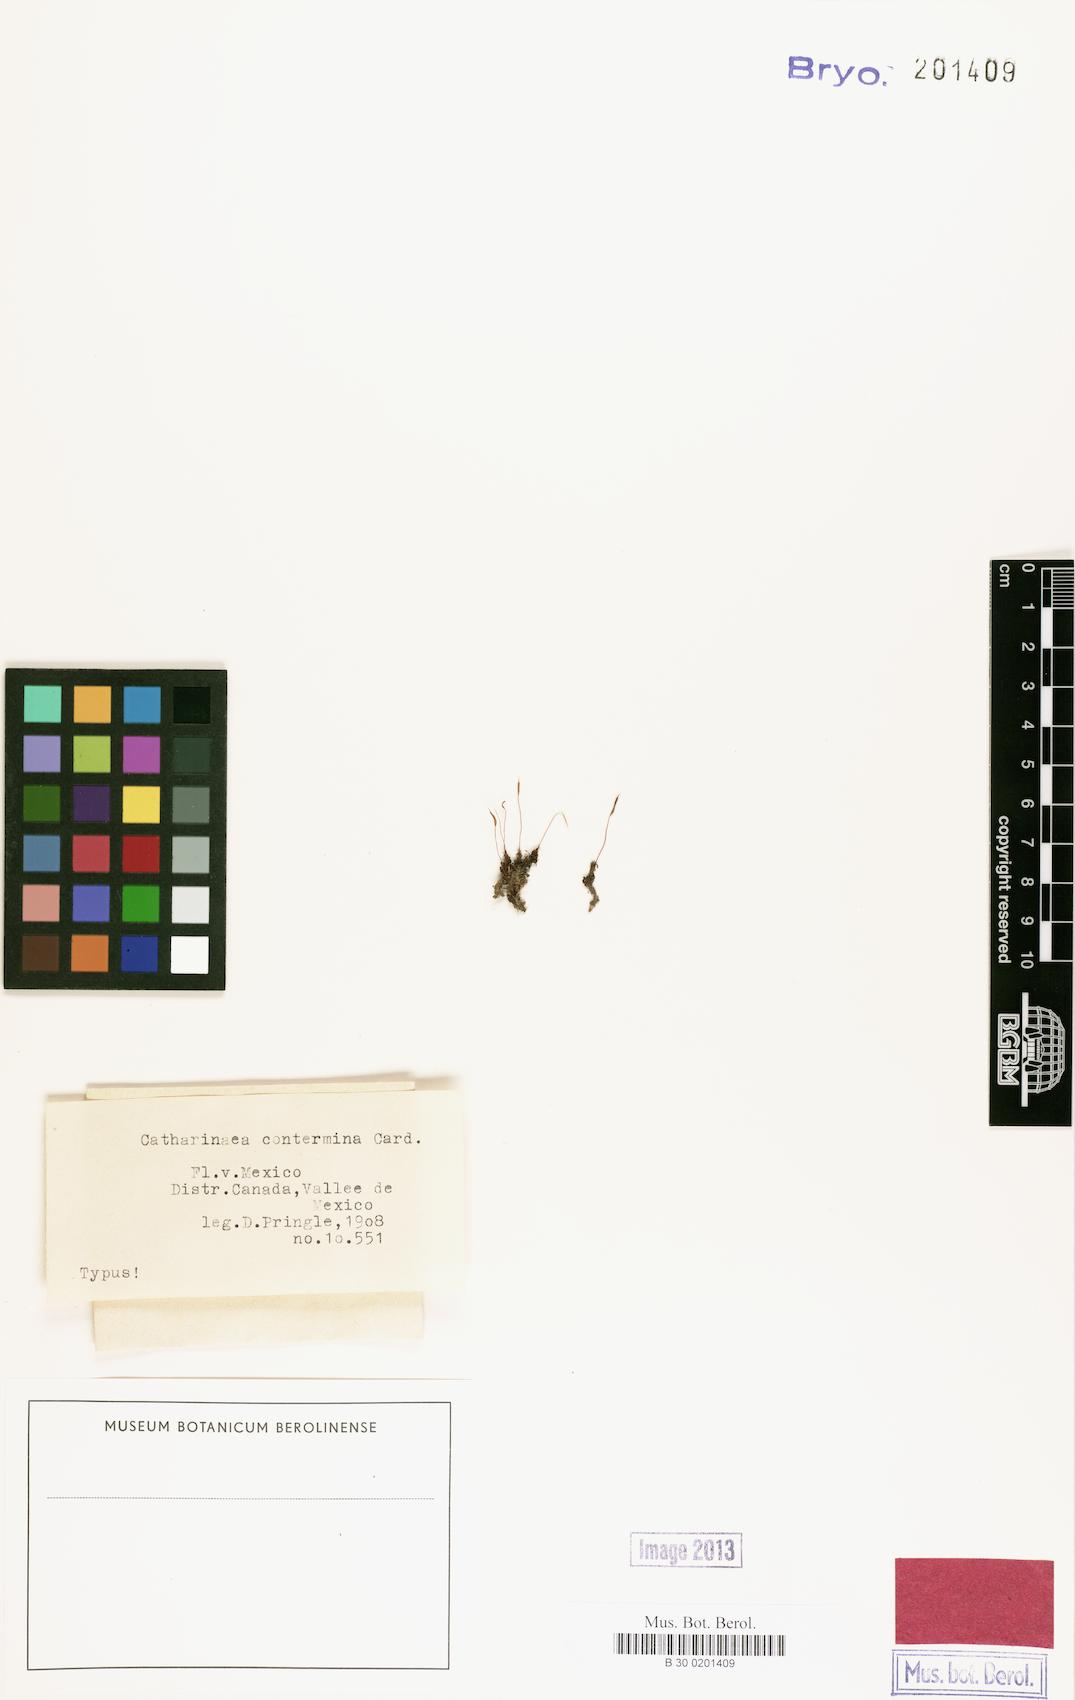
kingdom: Plantae
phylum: Bryophyta
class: Polytrichopsida
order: Polytrichales
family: Polytrichaceae
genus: Atrichum
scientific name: Atrichum rhystophyllum
